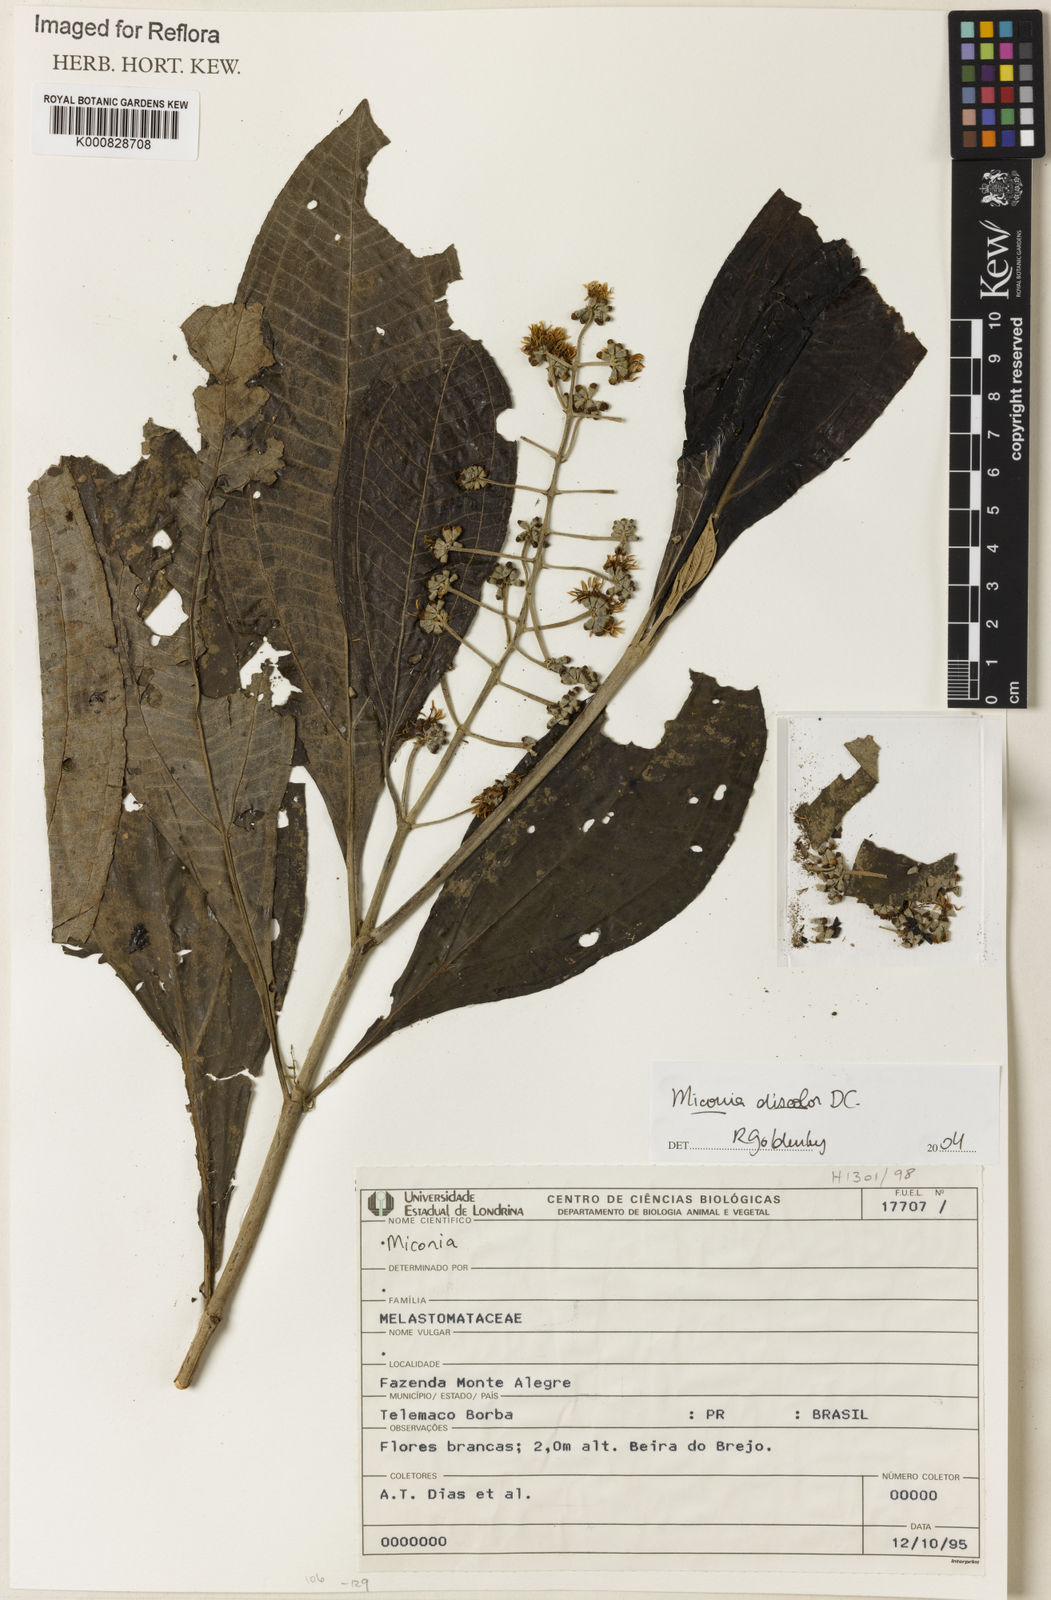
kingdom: Plantae
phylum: Tracheophyta
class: Magnoliopsida
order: Myrtales
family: Melastomataceae
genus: Miconia
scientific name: Miconia discolor
